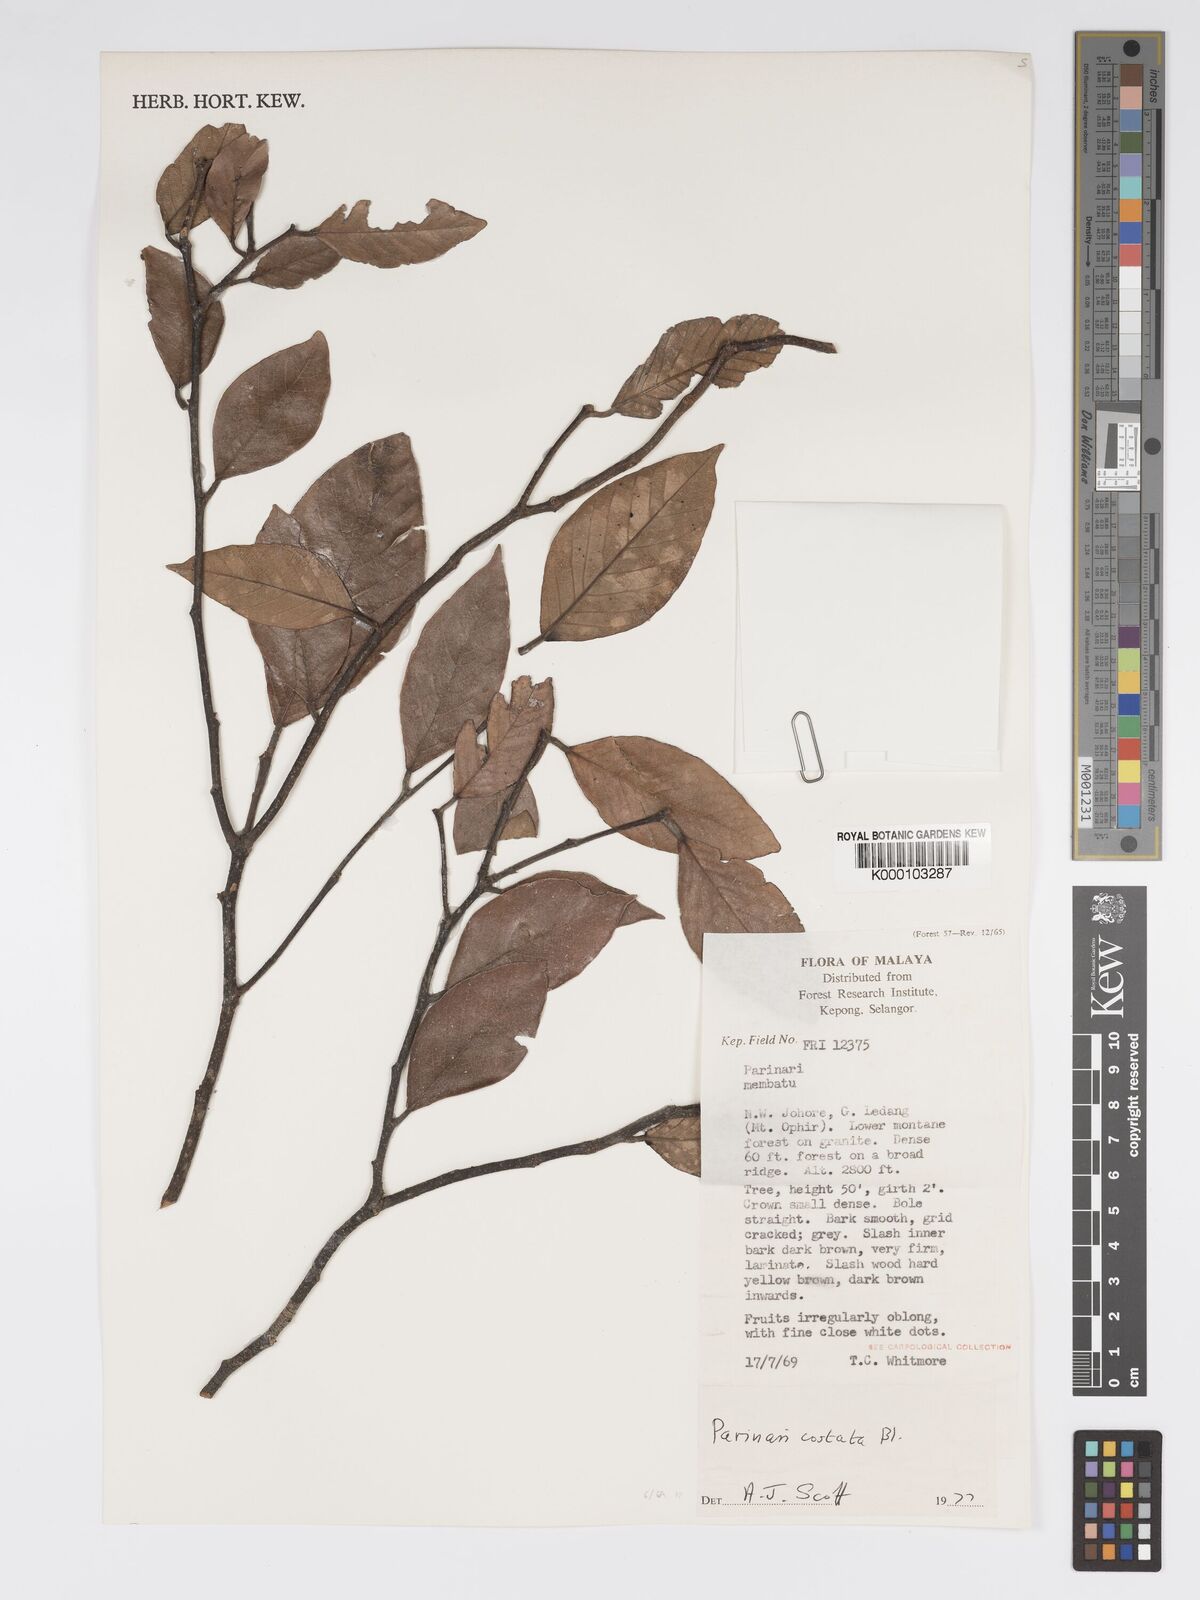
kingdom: Plantae
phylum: Tracheophyta
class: Magnoliopsida
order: Malpighiales
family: Chrysobalanaceae
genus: Parinari
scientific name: Parinari costata
